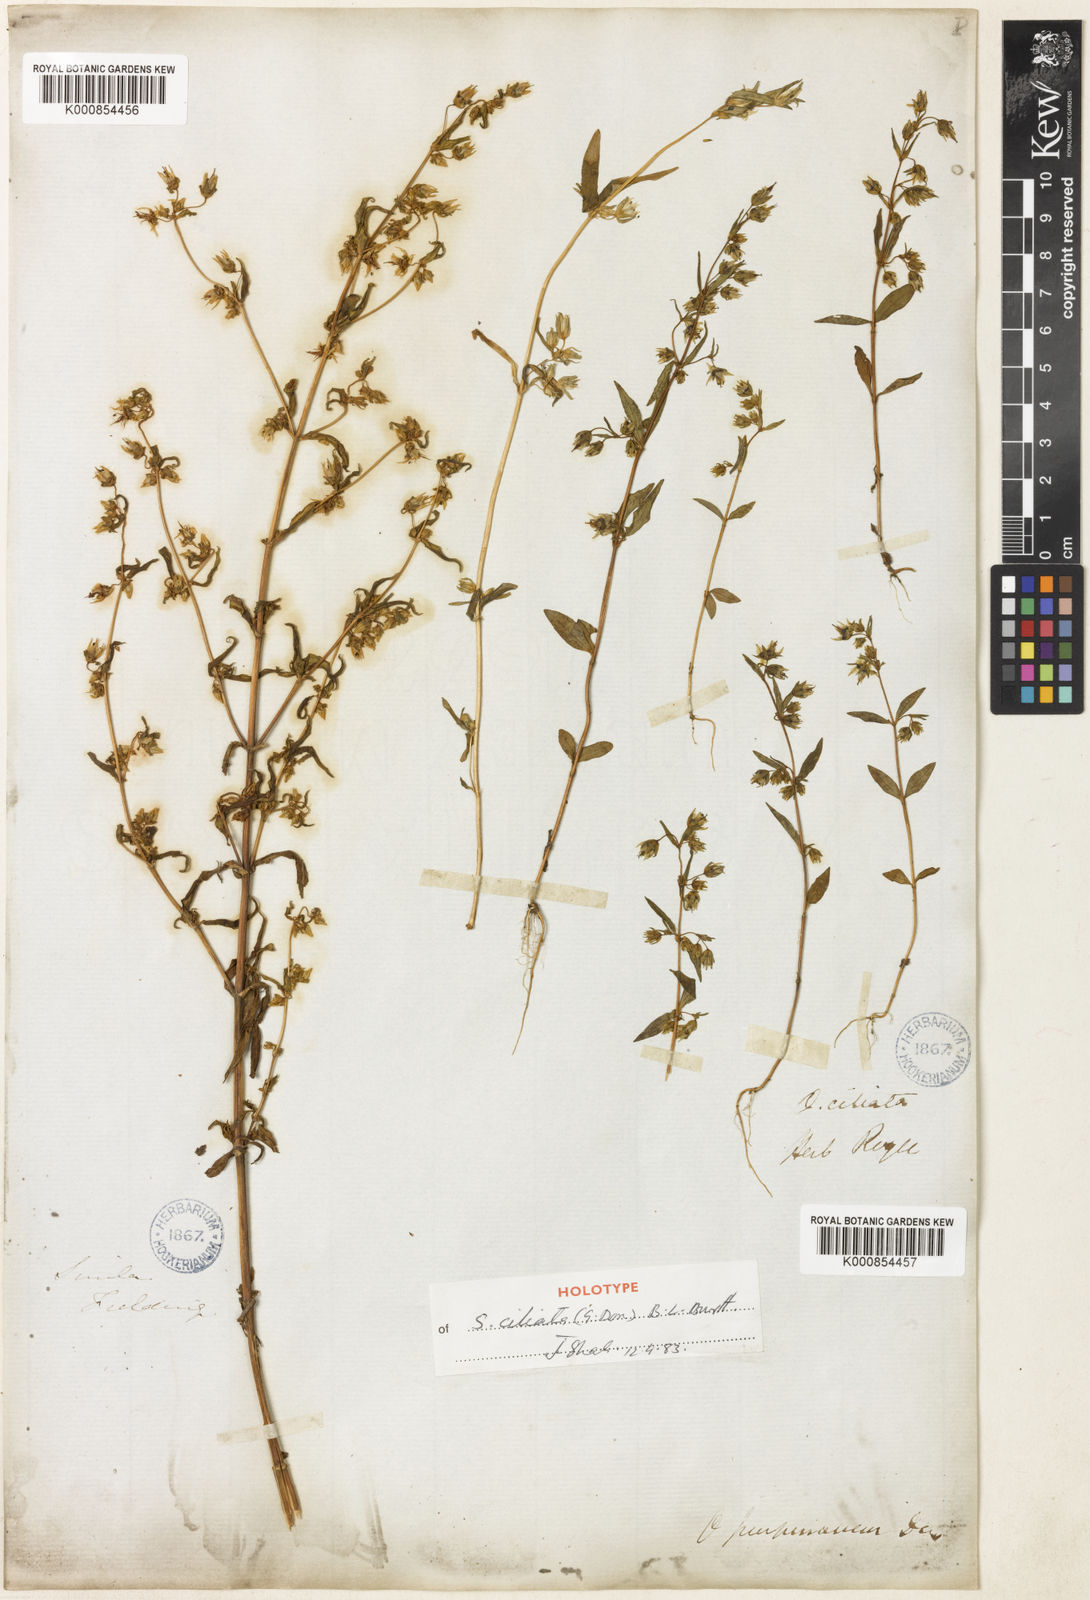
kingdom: Plantae
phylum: Tracheophyta
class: Magnoliopsida
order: Gentianales
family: Gentianaceae
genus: Swertia
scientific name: Swertia
